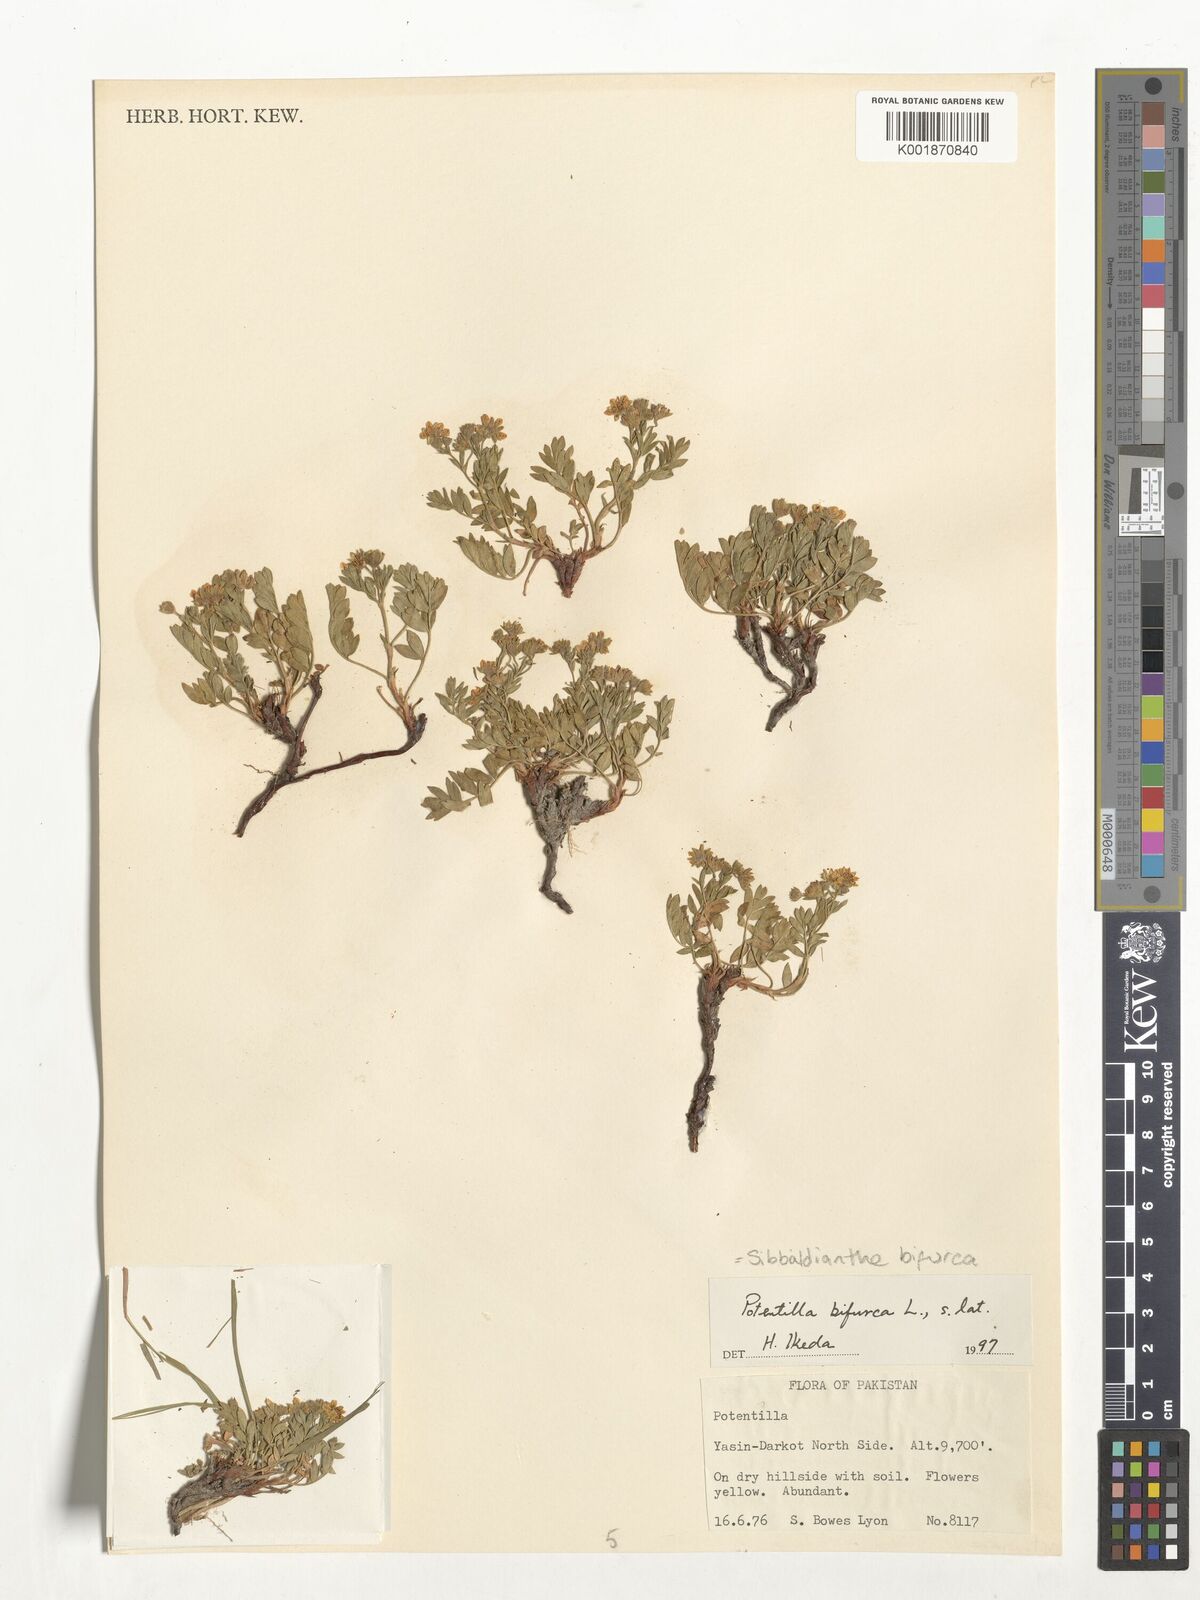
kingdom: Plantae
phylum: Tracheophyta
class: Magnoliopsida
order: Rosales
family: Rosaceae
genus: Sibbaldianthe
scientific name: Sibbaldianthe bifurca
